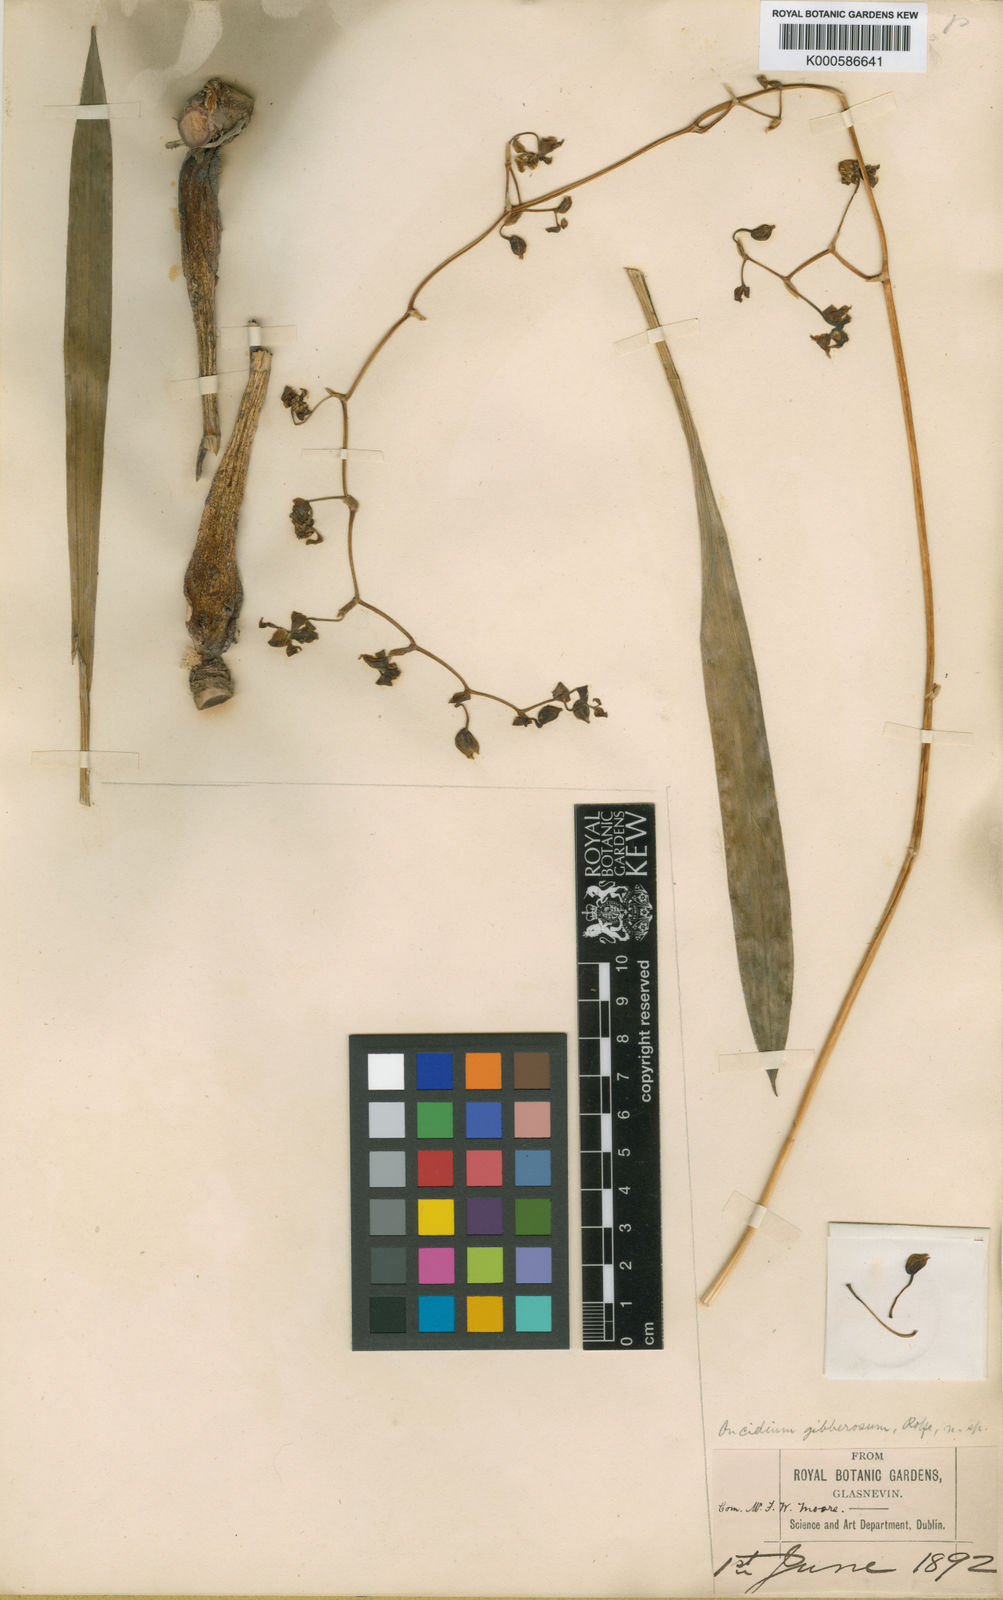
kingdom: Plantae
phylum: Tracheophyta
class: Liliopsida
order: Asparagales
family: Orchidaceae
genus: Oncidium
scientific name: Oncidium
